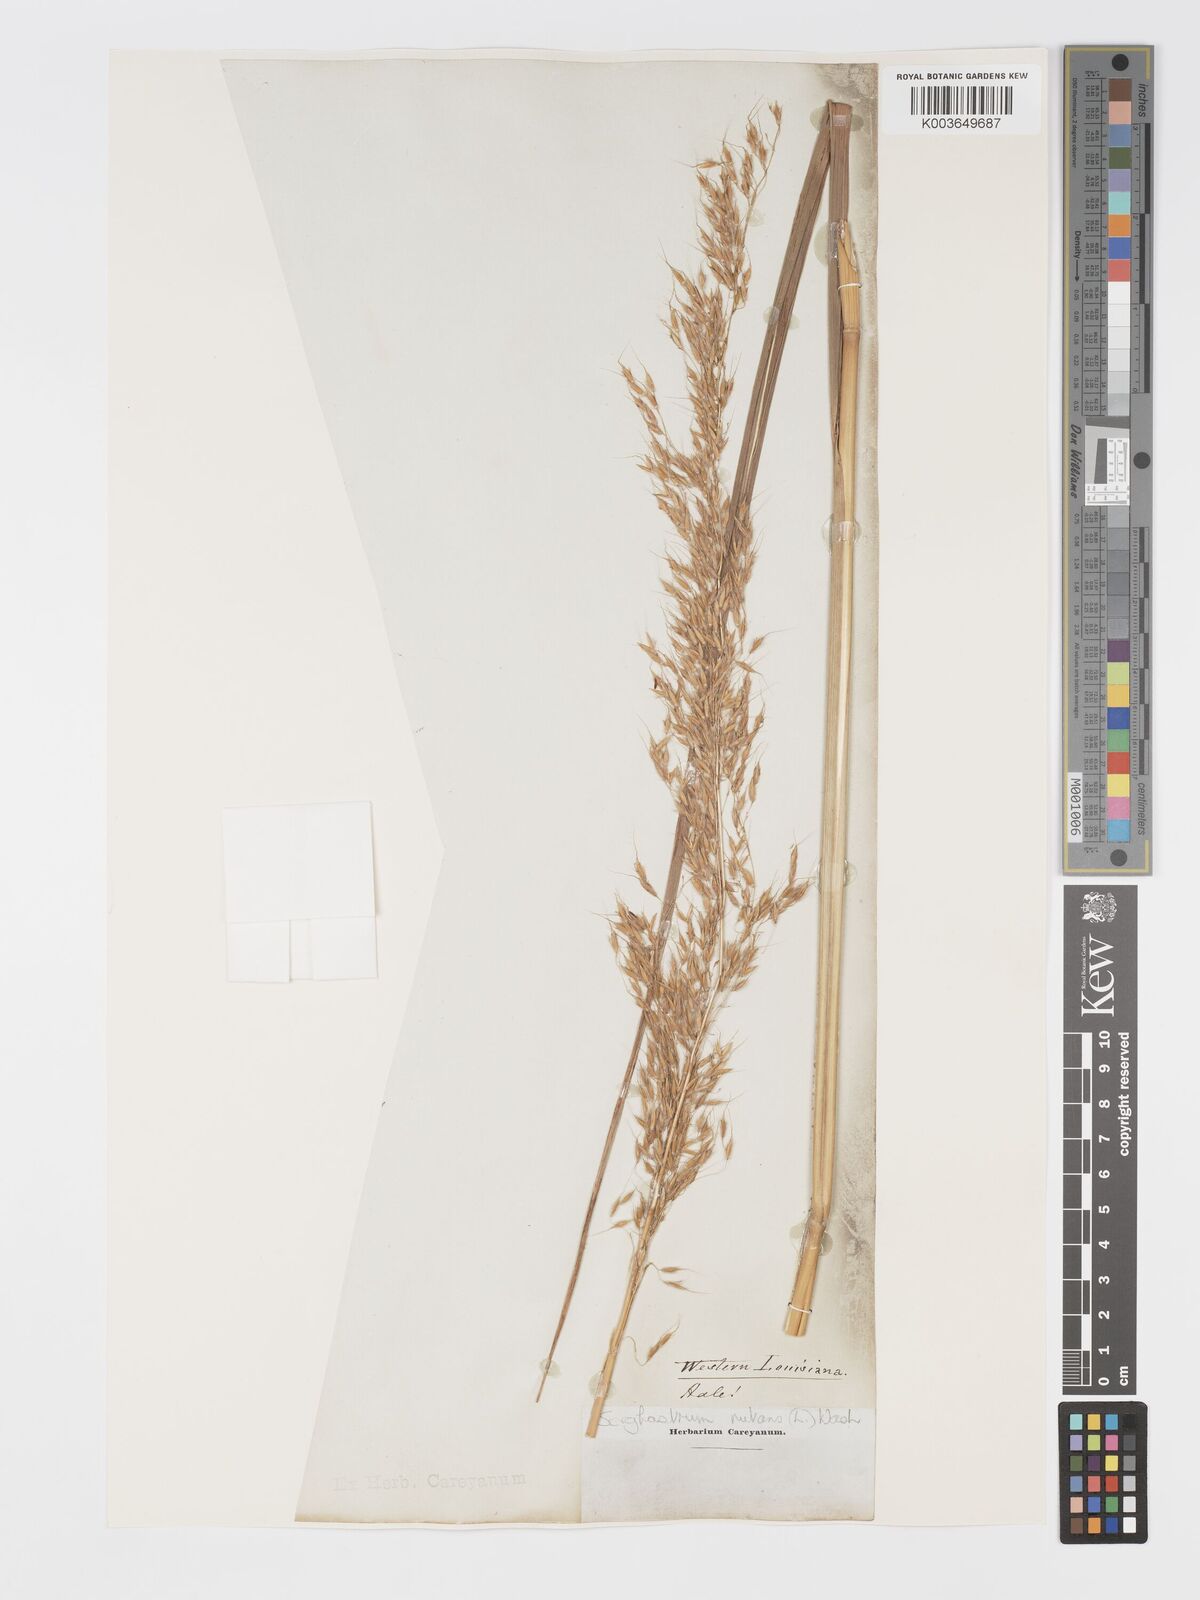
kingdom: Plantae
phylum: Tracheophyta
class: Liliopsida
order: Poales
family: Poaceae
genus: Sorghastrum
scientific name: Sorghastrum nutans
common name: Indian grass
